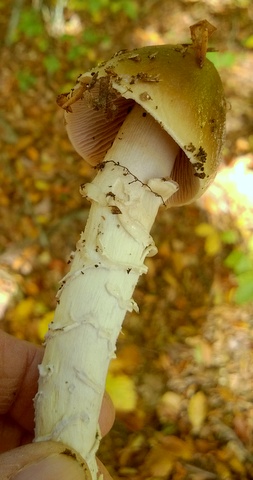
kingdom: Fungi
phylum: Basidiomycota
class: Agaricomycetes
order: Agaricales
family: Cortinariaceae
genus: Cortinarius
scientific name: Cortinarius elatior
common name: høj slørhat
